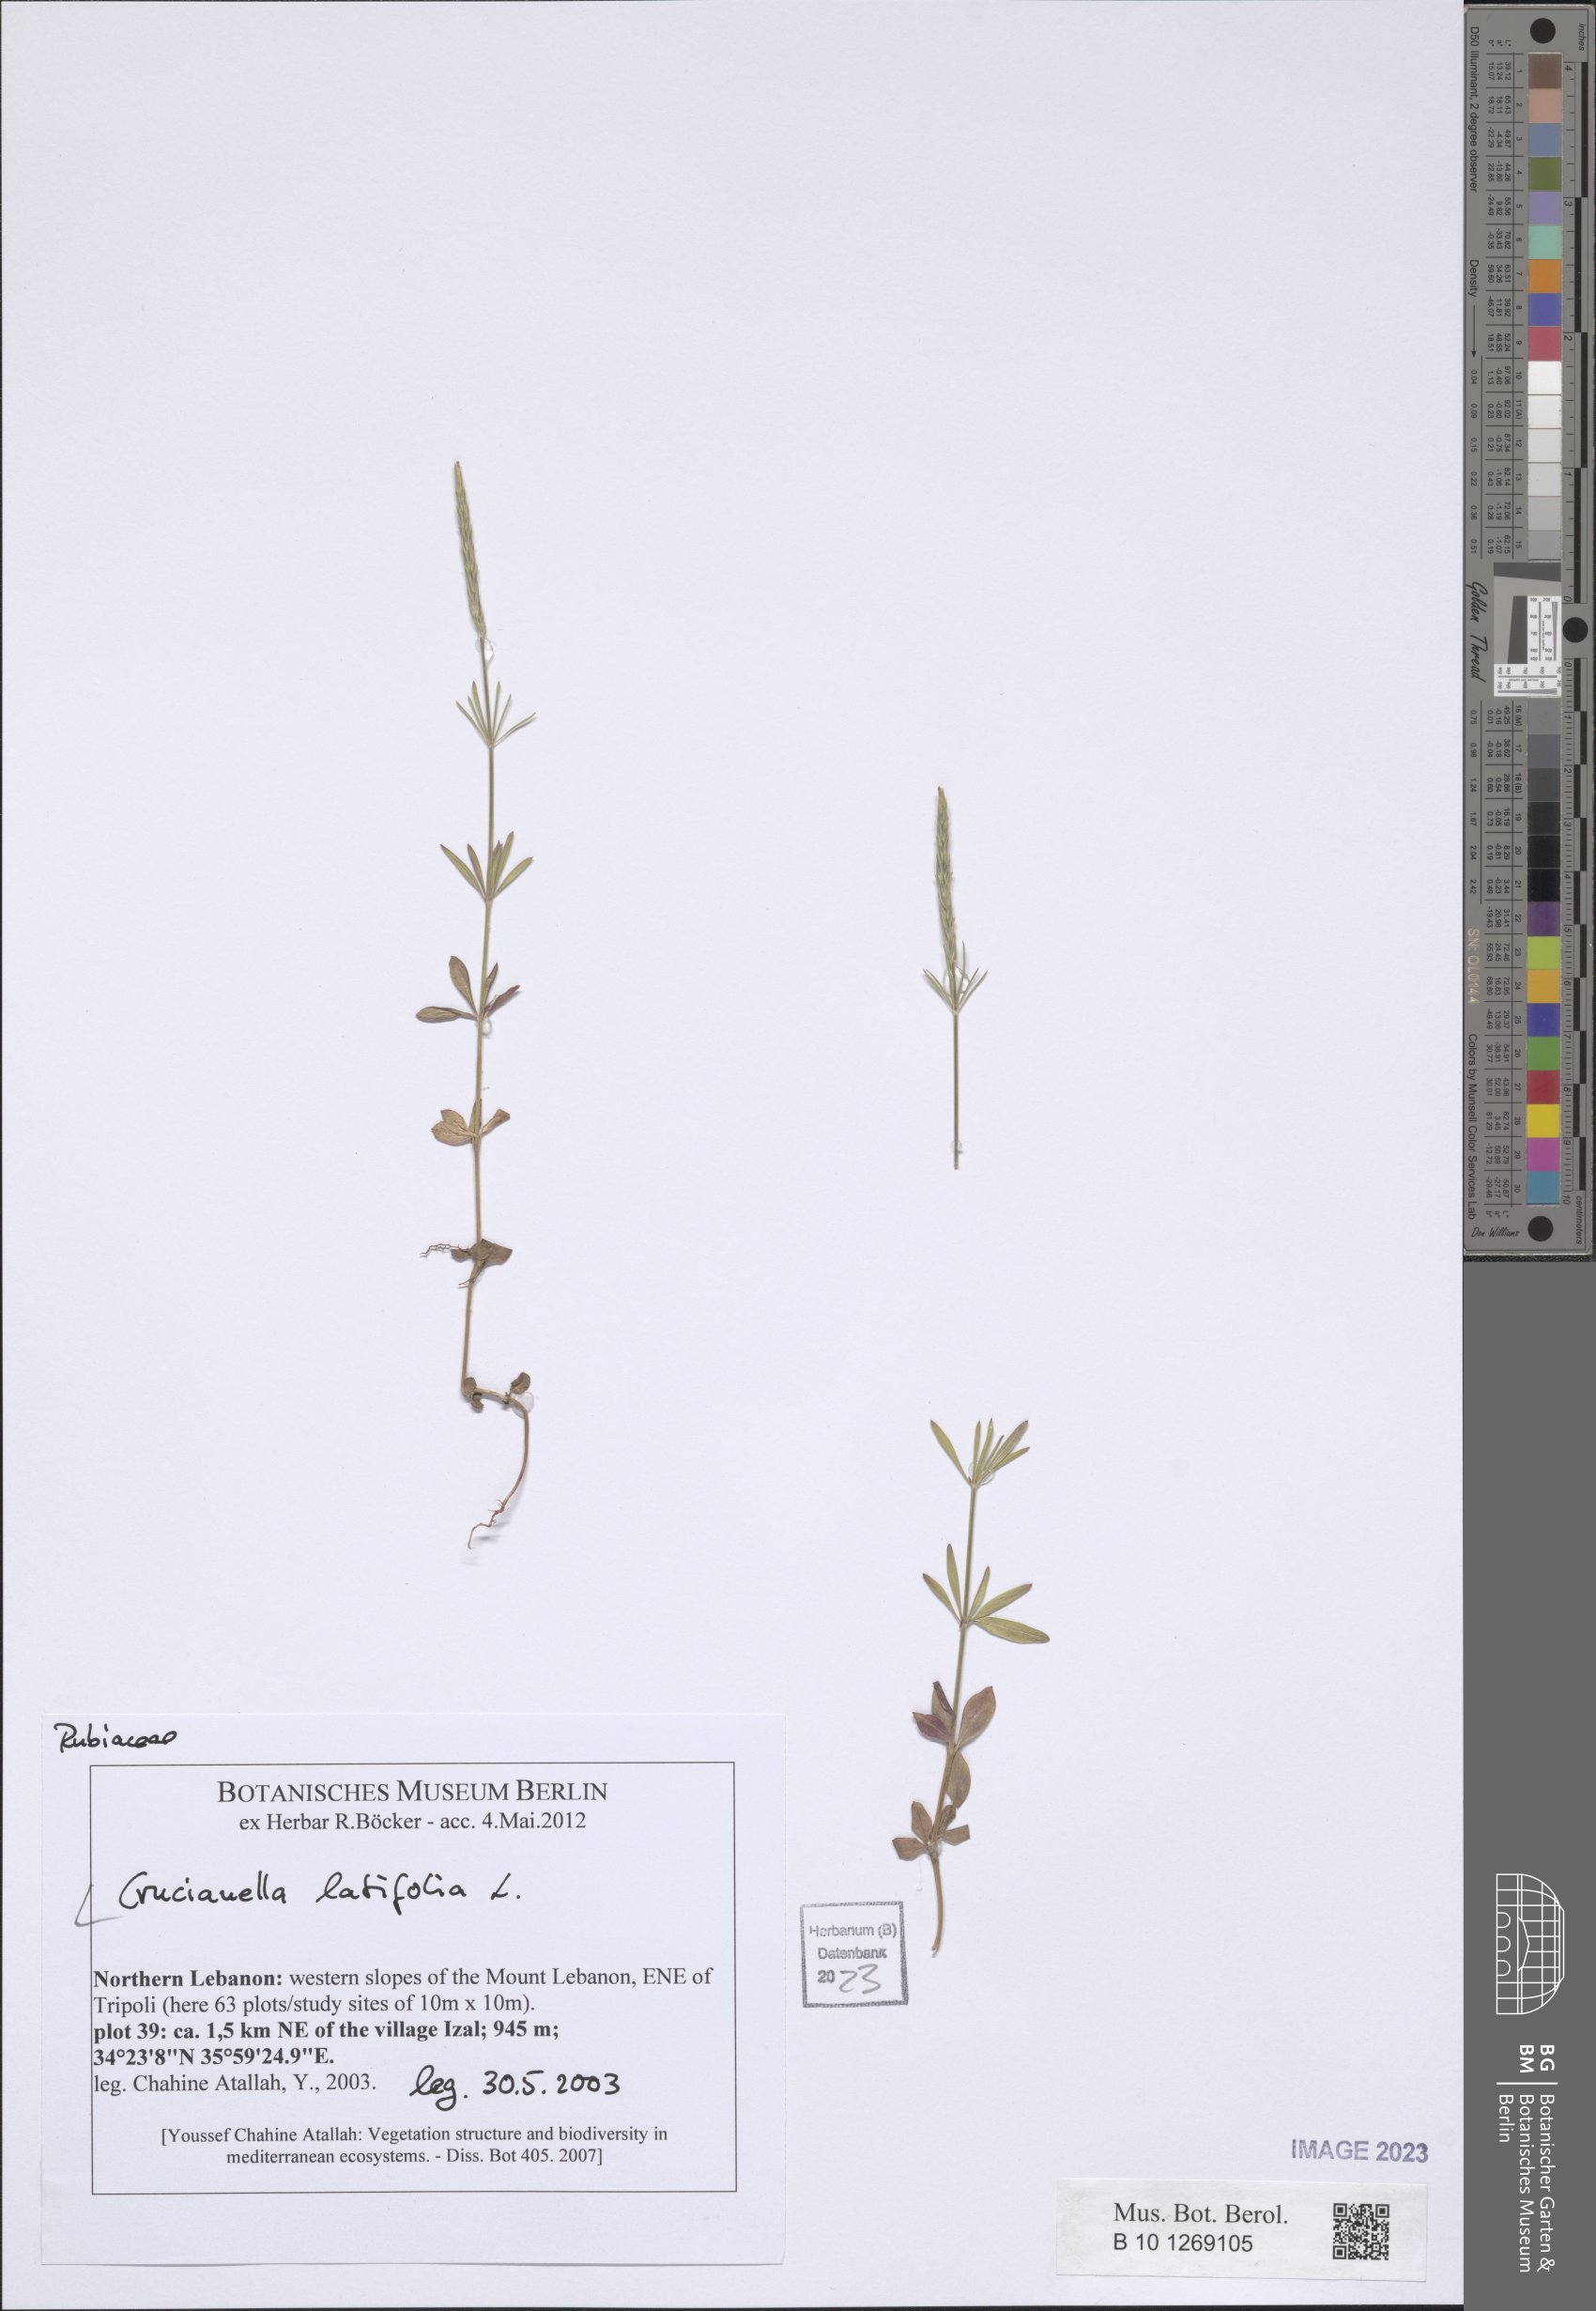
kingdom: Plantae
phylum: Tracheophyta
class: Magnoliopsida
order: Gentianales
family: Rubiaceae
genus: Crucianella
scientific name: Crucianella latifolia
